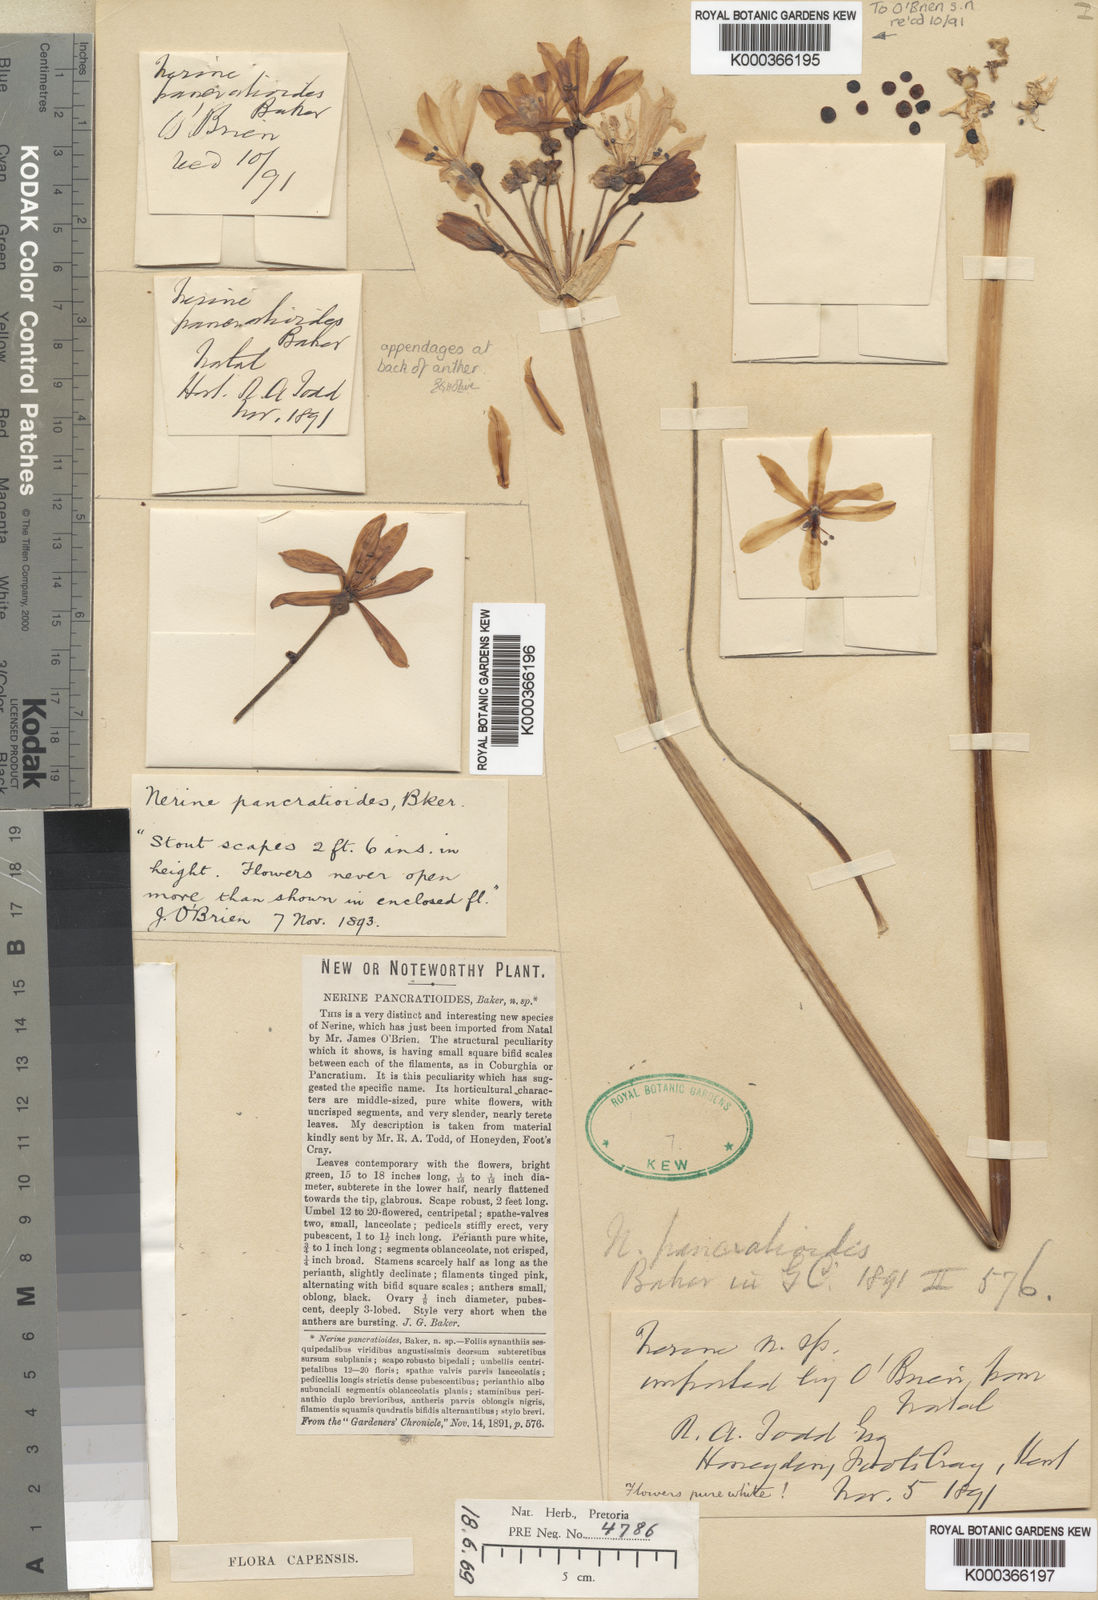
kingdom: Plantae
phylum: Tracheophyta
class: Liliopsida
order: Asparagales
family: Amaryllidaceae
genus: Nerine
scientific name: Nerine pancratioides
